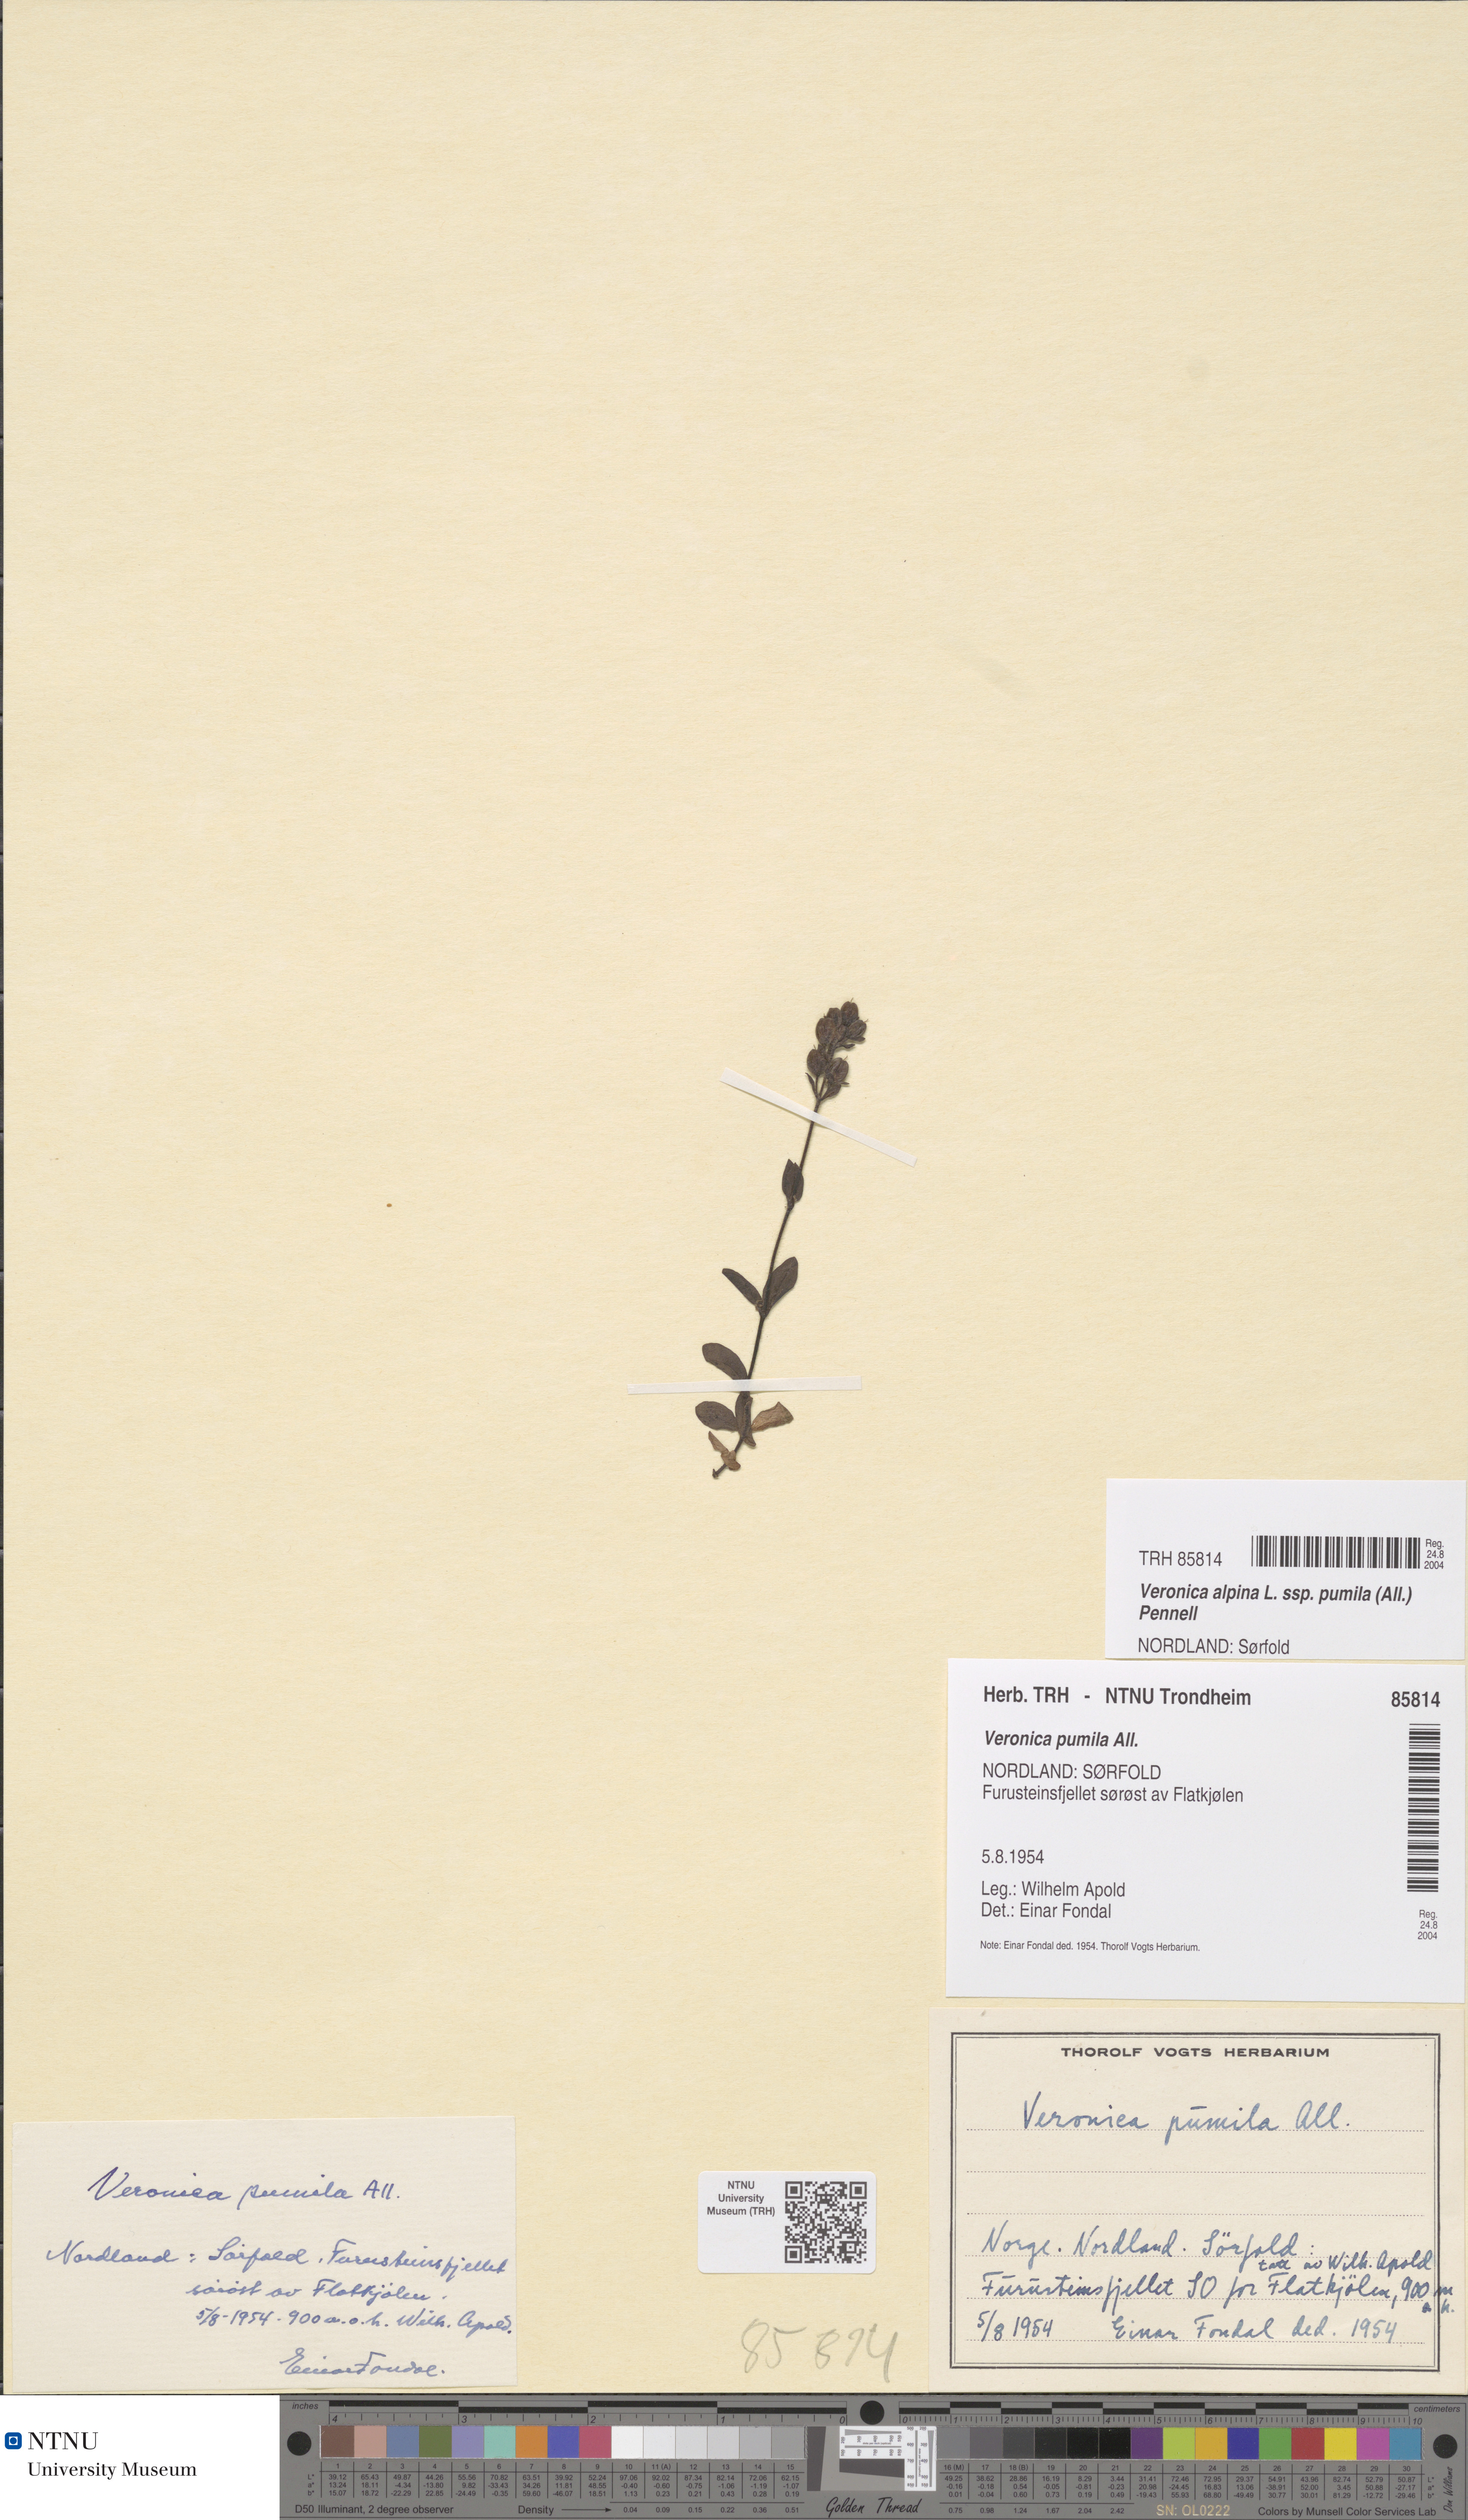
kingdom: Plantae
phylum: Tracheophyta
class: Magnoliopsida
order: Lamiales
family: Plantaginaceae
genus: Veronica
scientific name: Veronica alpina
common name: Alpine speedwell
